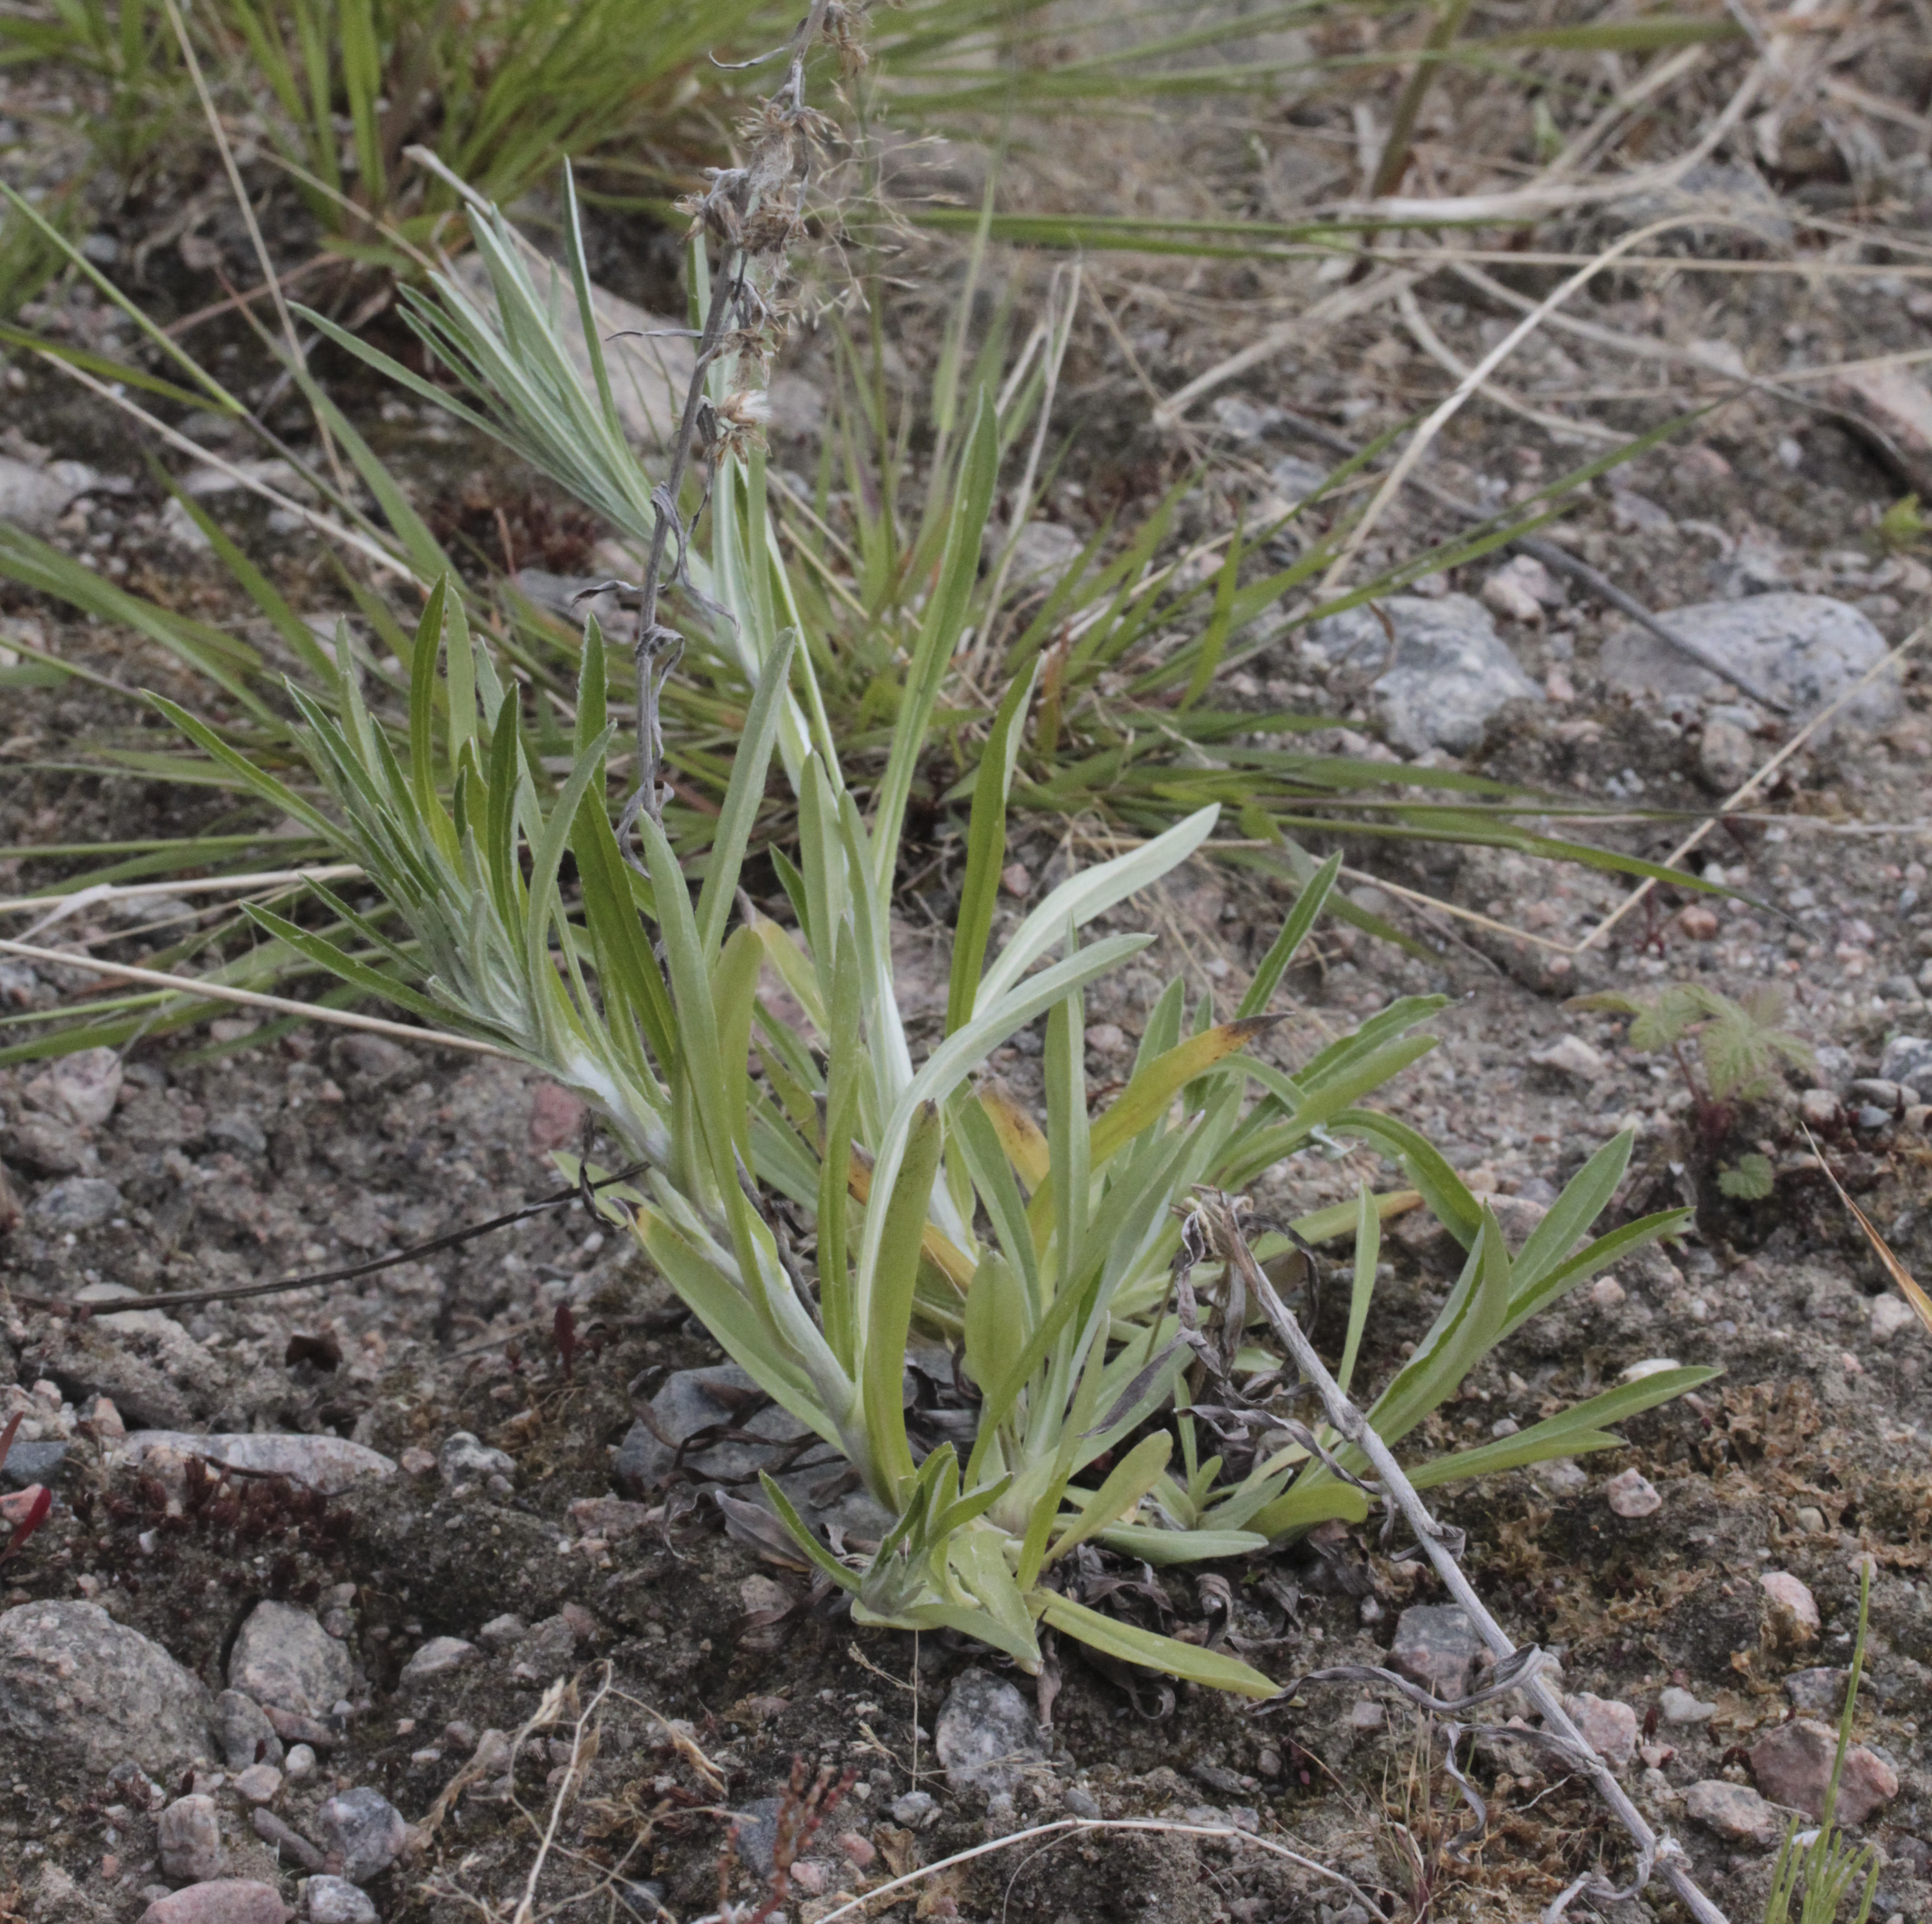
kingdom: Plantae
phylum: Tracheophyta
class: Magnoliopsida
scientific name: Magnoliopsida
